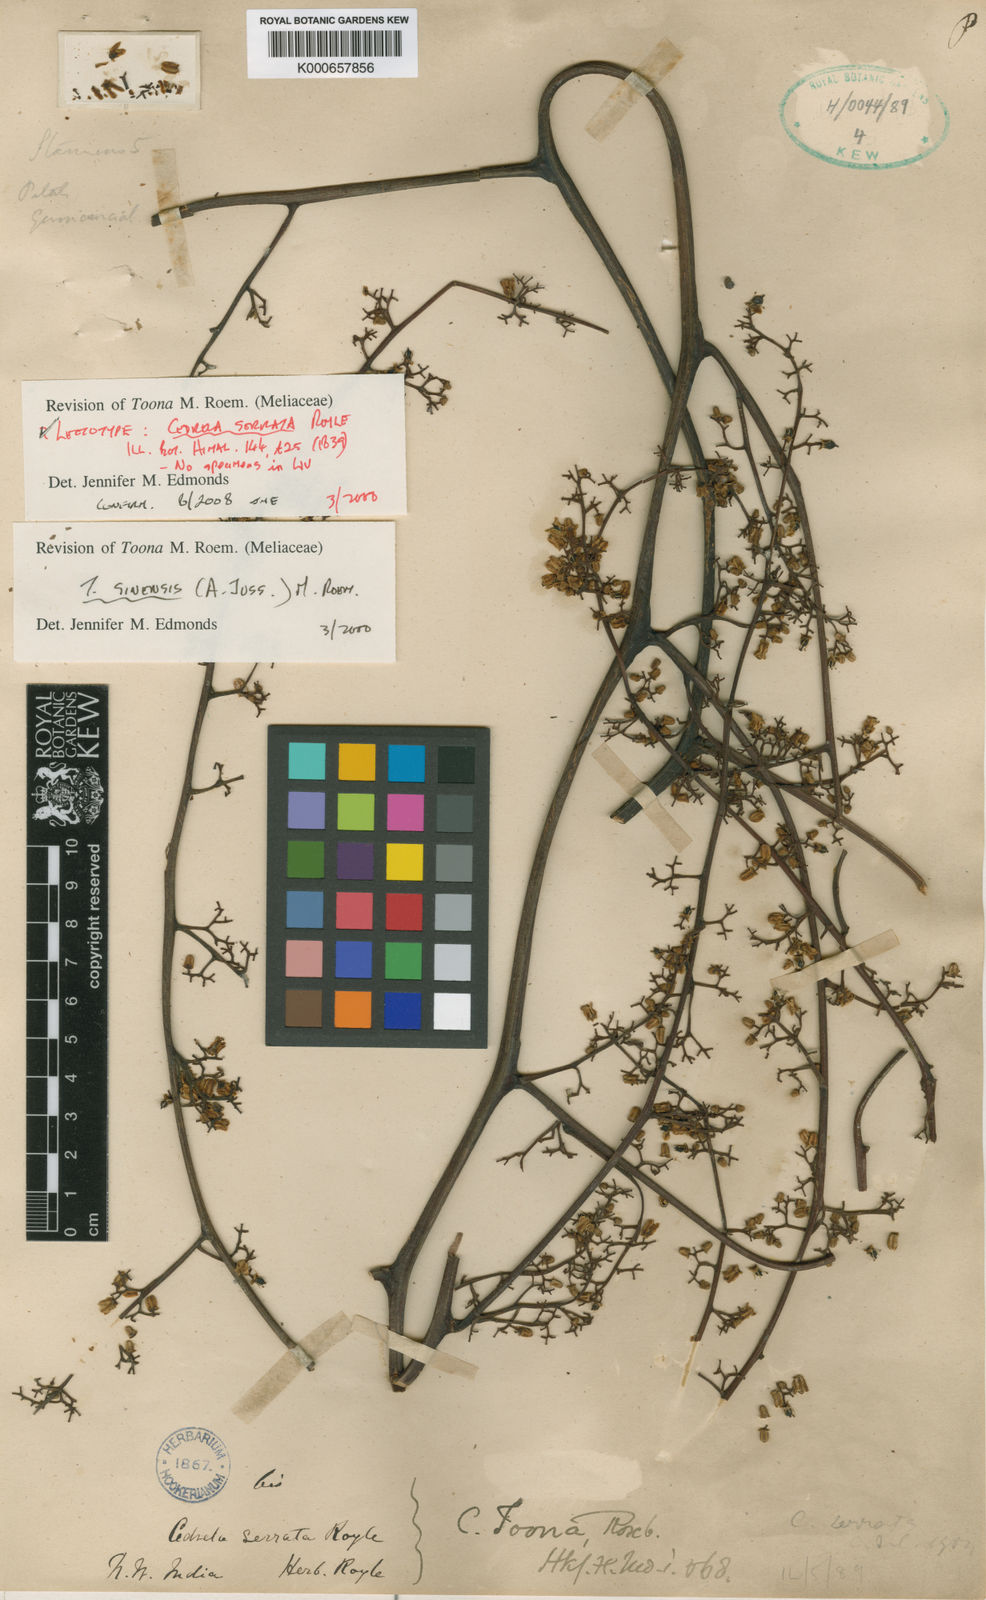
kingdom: Plantae
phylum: Tracheophyta
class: Magnoliopsida
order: Sapindales
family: Meliaceae
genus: Toona
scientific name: Toona sinensis
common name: Red toon
